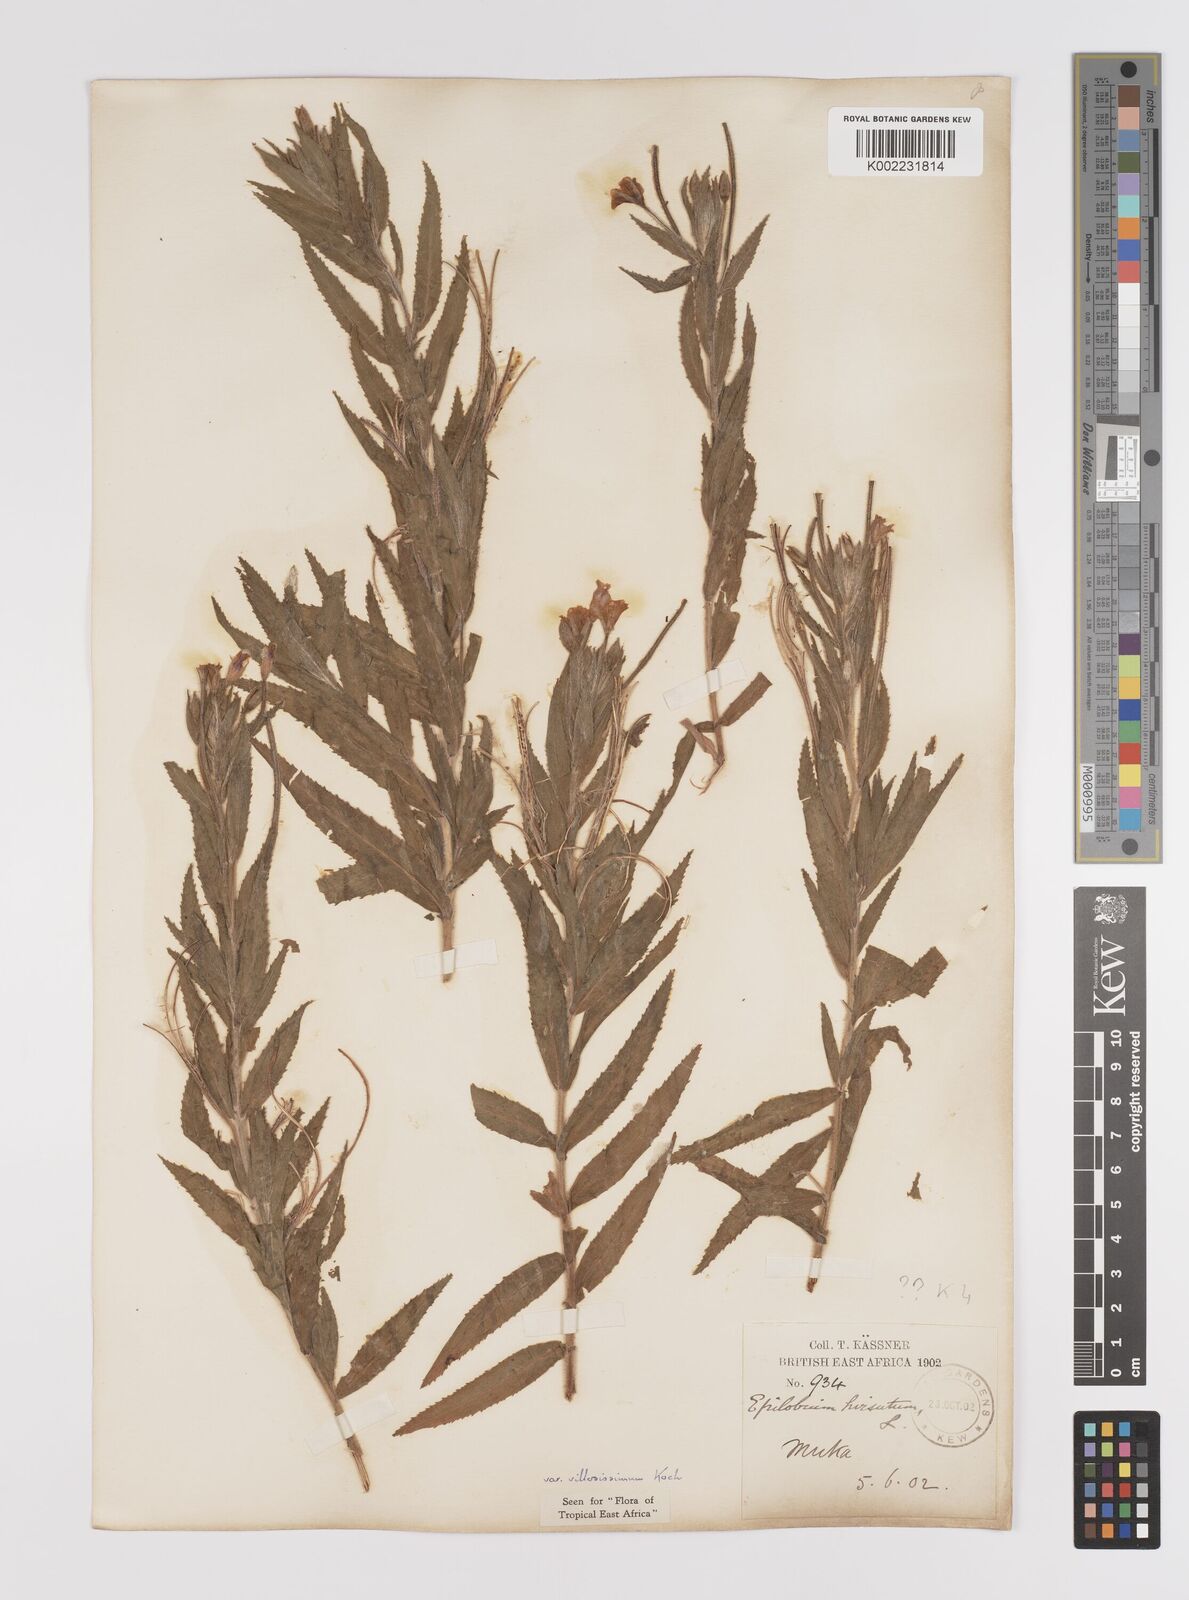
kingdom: Plantae
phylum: Tracheophyta
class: Magnoliopsida
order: Myrtales
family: Onagraceae
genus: Epilobium
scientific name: Epilobium hirsutum
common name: Great willowherb
